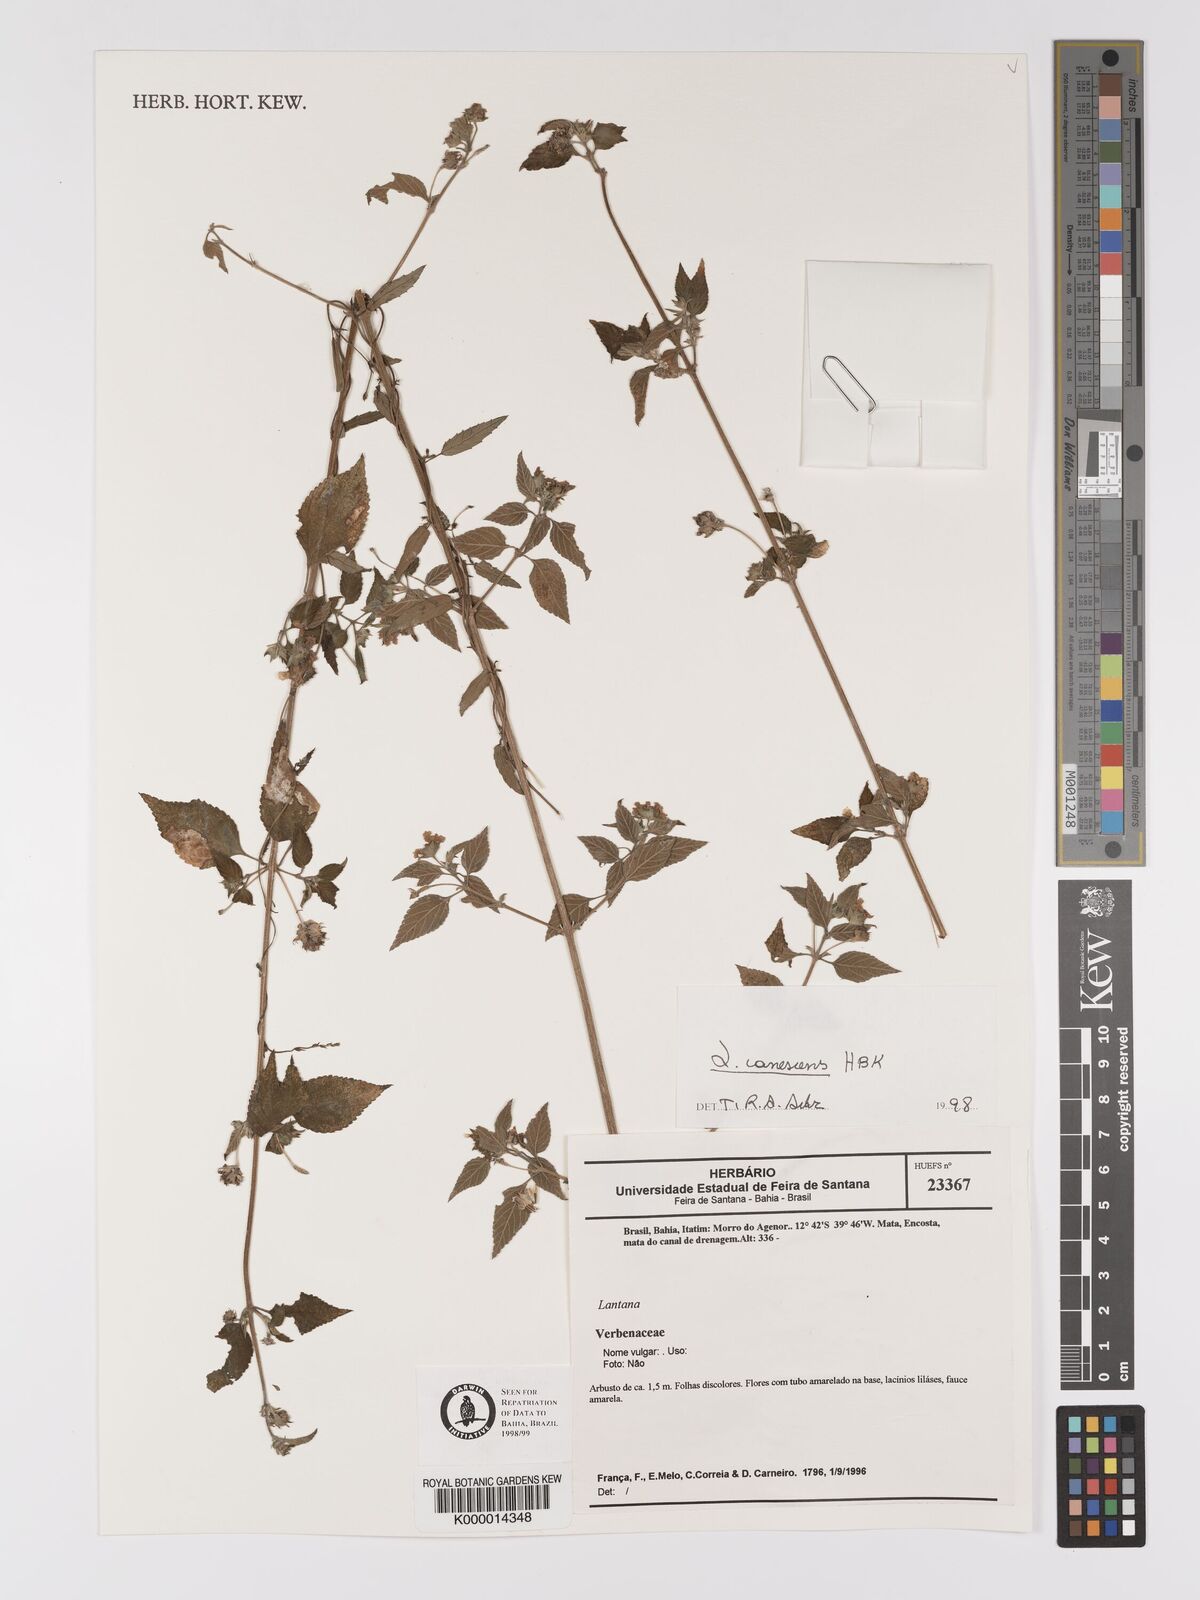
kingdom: Plantae
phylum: Tracheophyta
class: Magnoliopsida
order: Lamiales
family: Verbenaceae
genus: Lantana
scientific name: Lantana
